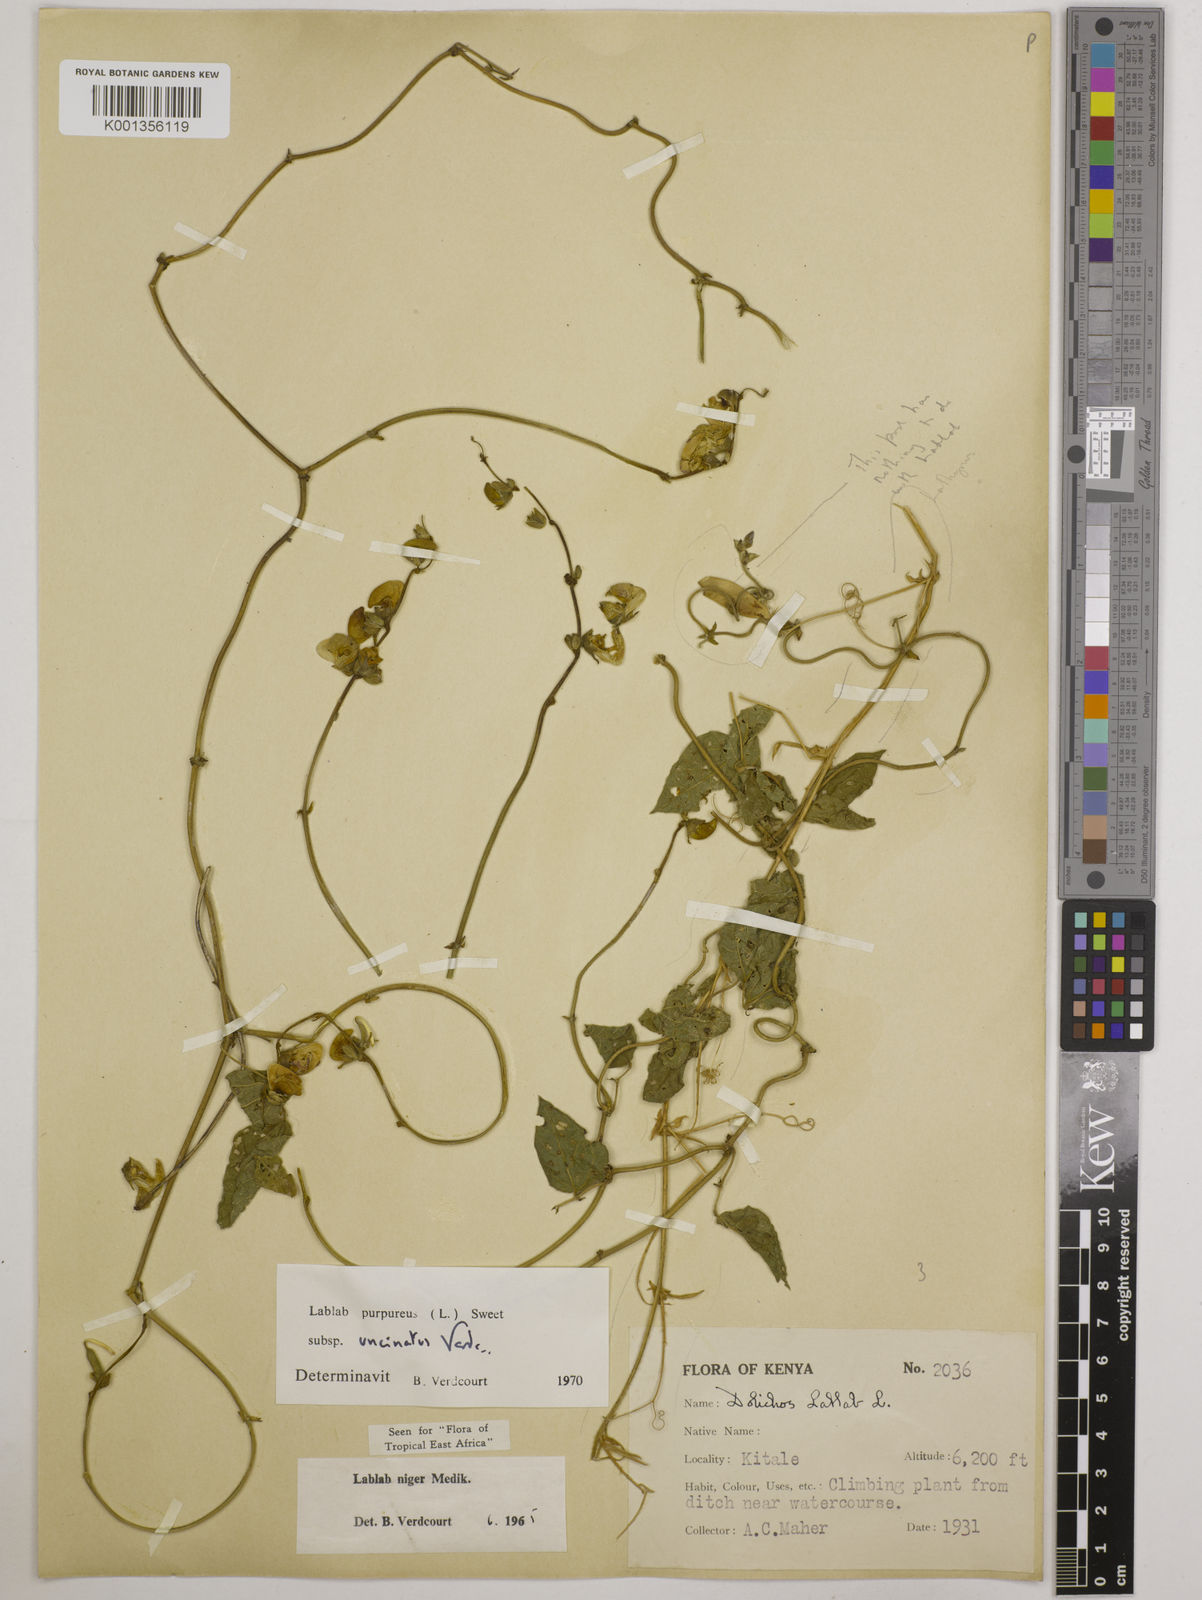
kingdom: Plantae
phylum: Tracheophyta
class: Magnoliopsida
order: Fabales
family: Fabaceae
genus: Lablab
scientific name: Lablab purpureus
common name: Lablab-bean
